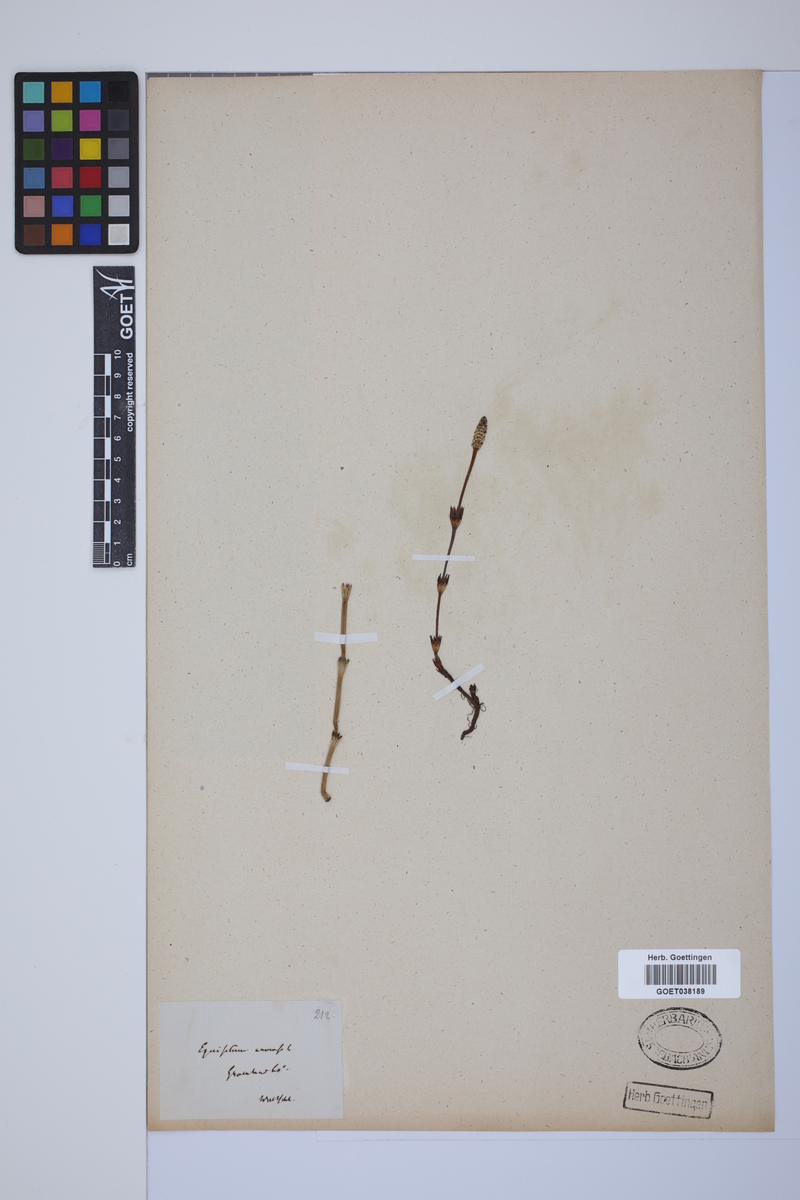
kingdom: Plantae
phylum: Tracheophyta
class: Polypodiopsida
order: Equisetales
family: Equisetaceae
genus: Equisetum
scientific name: Equisetum arvense
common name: Field horsetail
